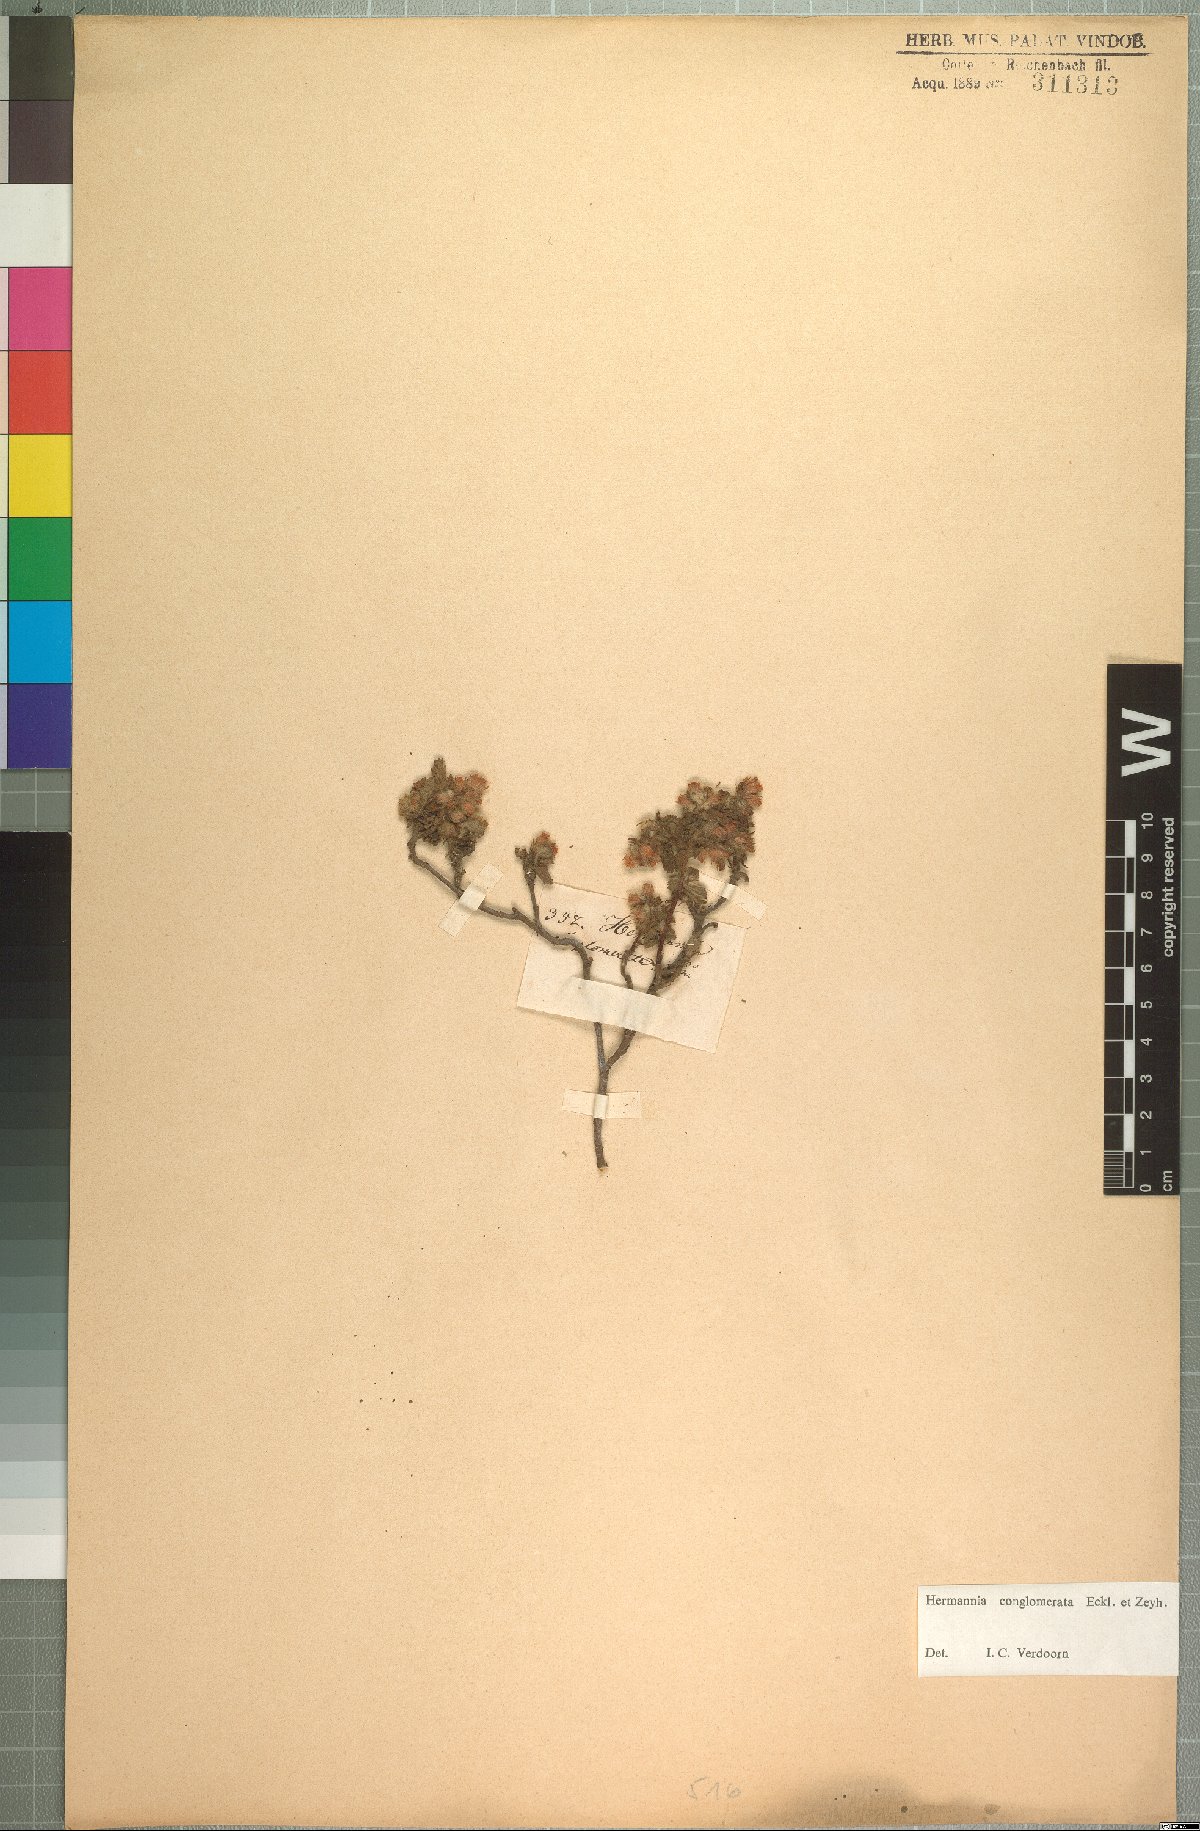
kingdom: Plantae
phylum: Tracheophyta
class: Magnoliopsida
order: Malvales
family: Malvaceae
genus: Hermannia
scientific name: Hermannia conglomerata
